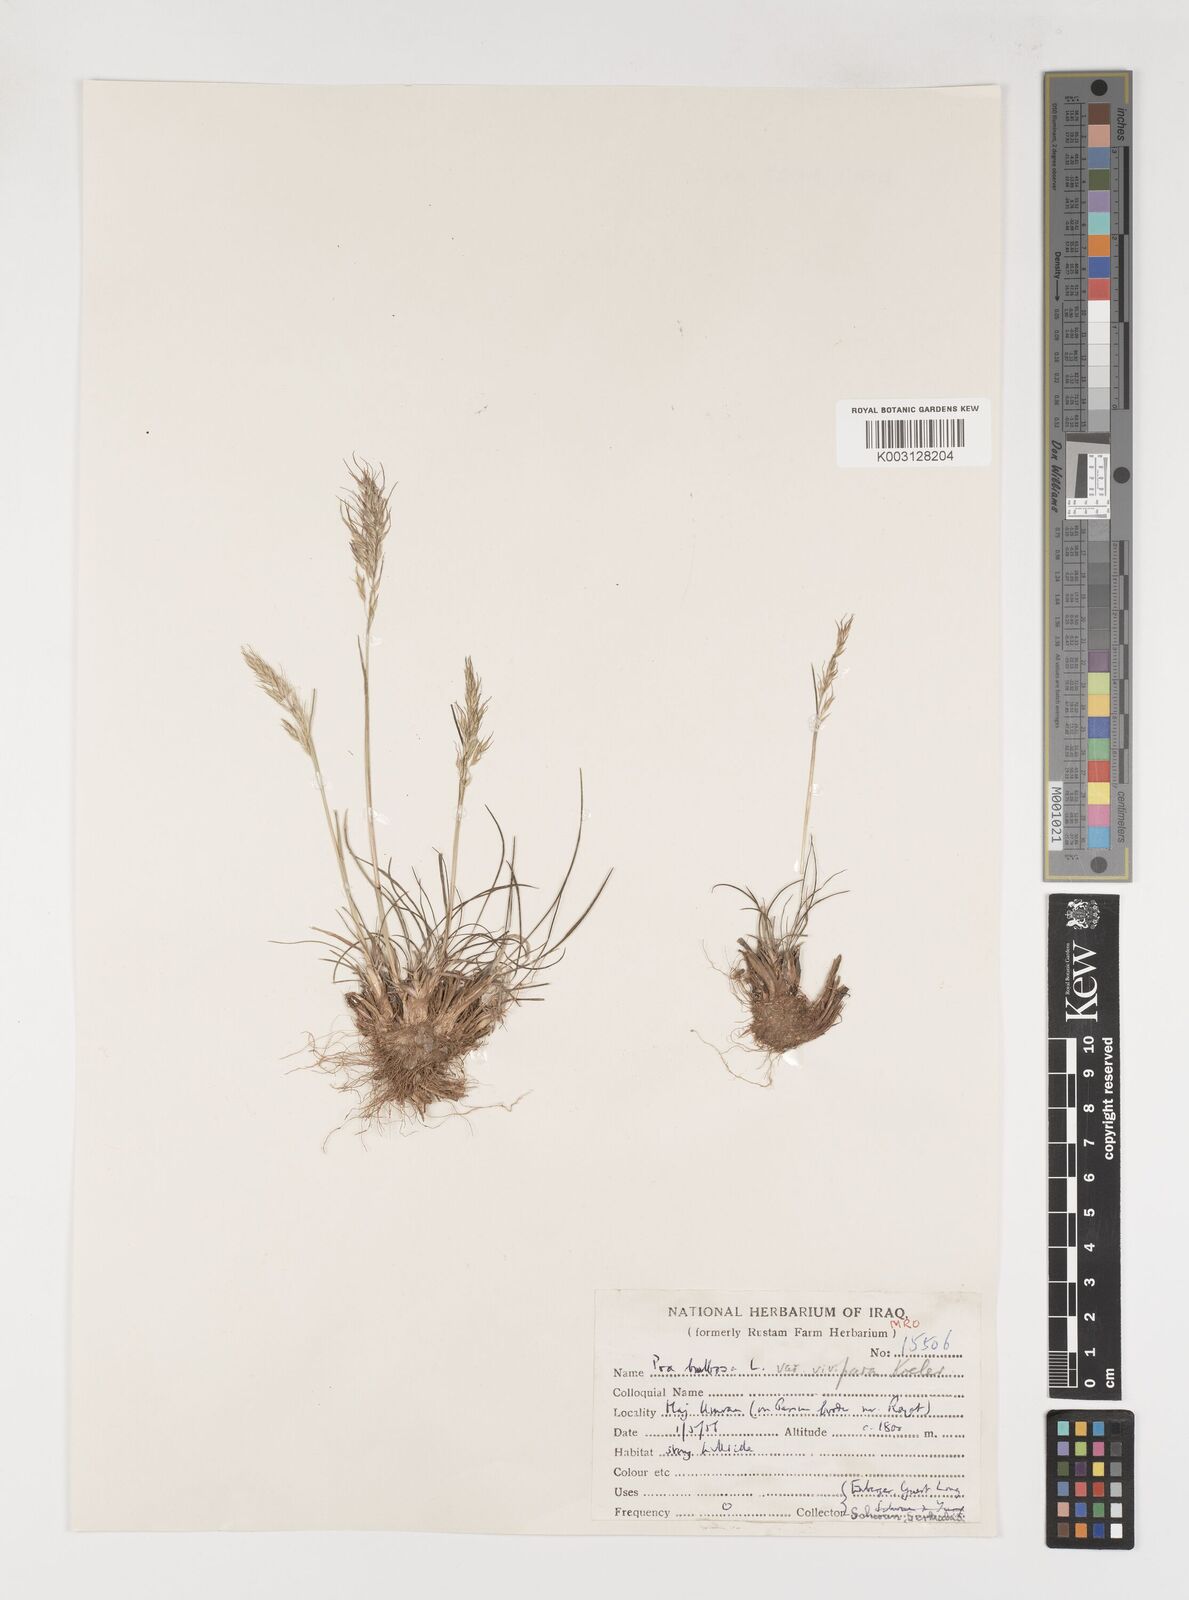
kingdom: Plantae
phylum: Tracheophyta
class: Liliopsida
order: Poales
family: Poaceae
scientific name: Poaceae
